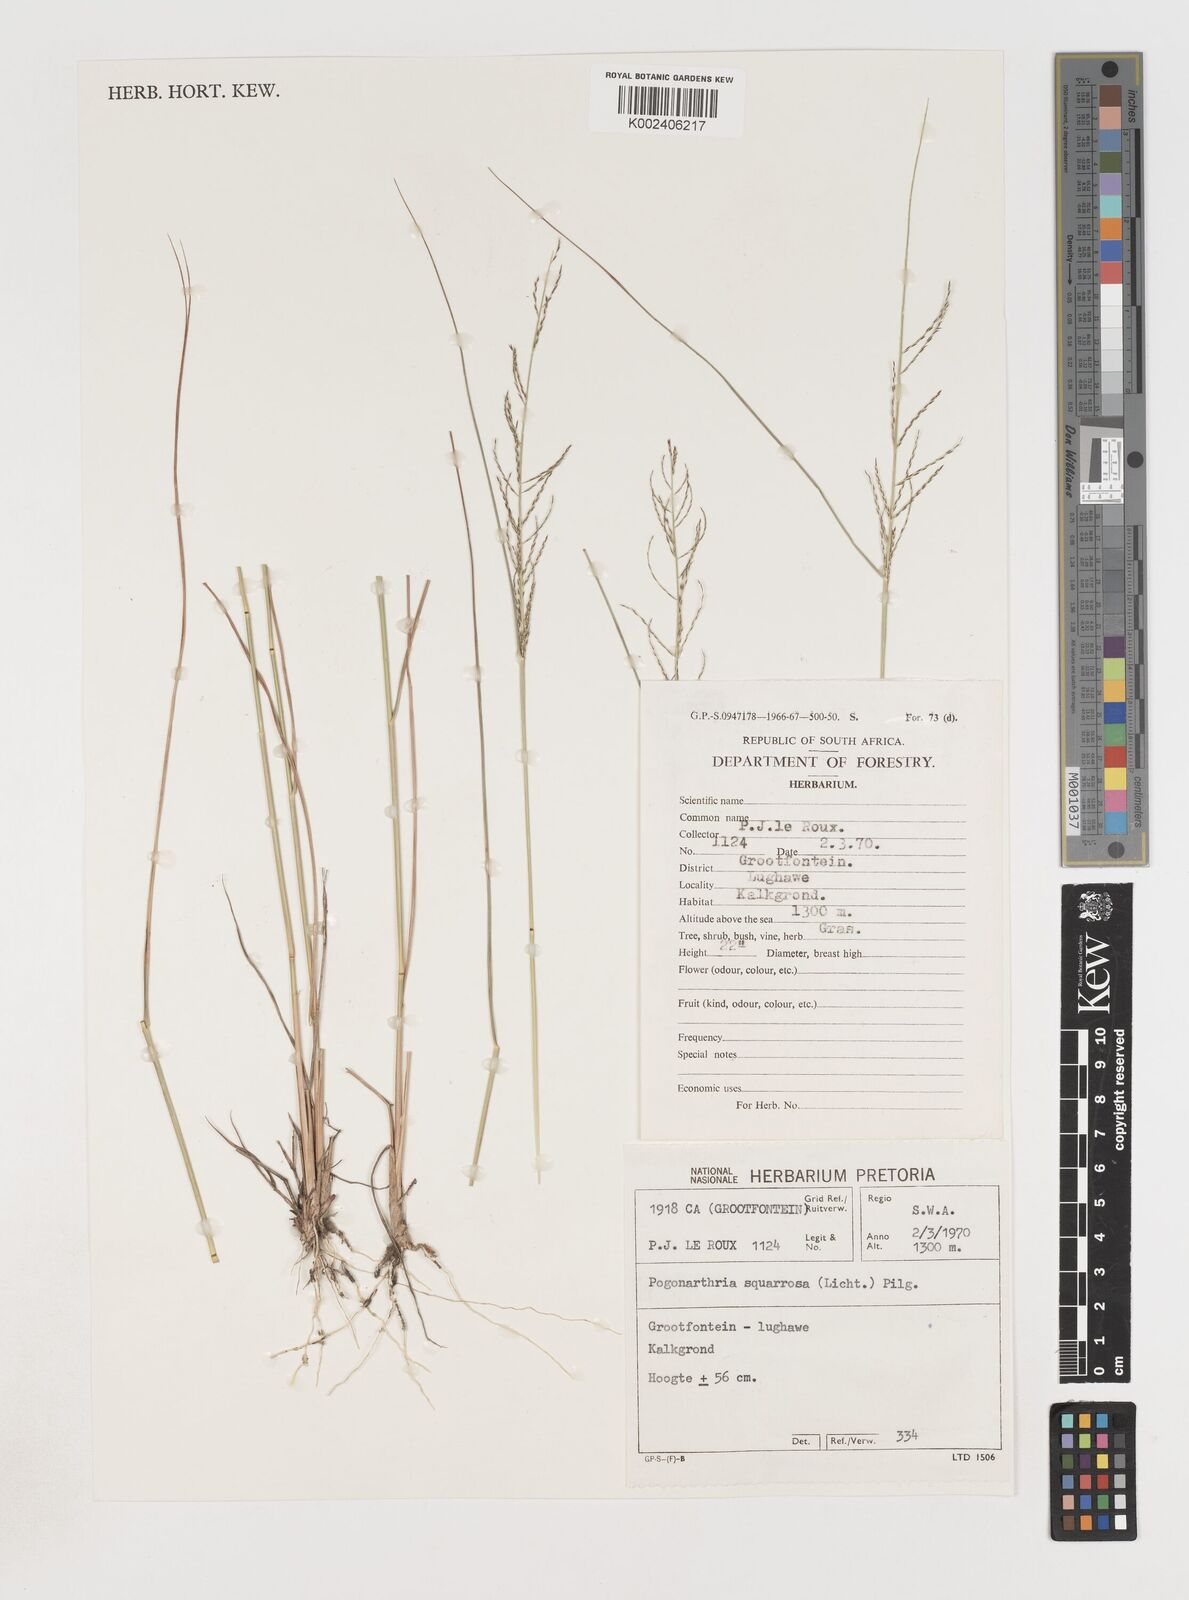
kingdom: Plantae
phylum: Tracheophyta
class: Liliopsida
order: Poales
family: Poaceae
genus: Pogonarthria
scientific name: Pogonarthria squarrosa
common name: Grass
